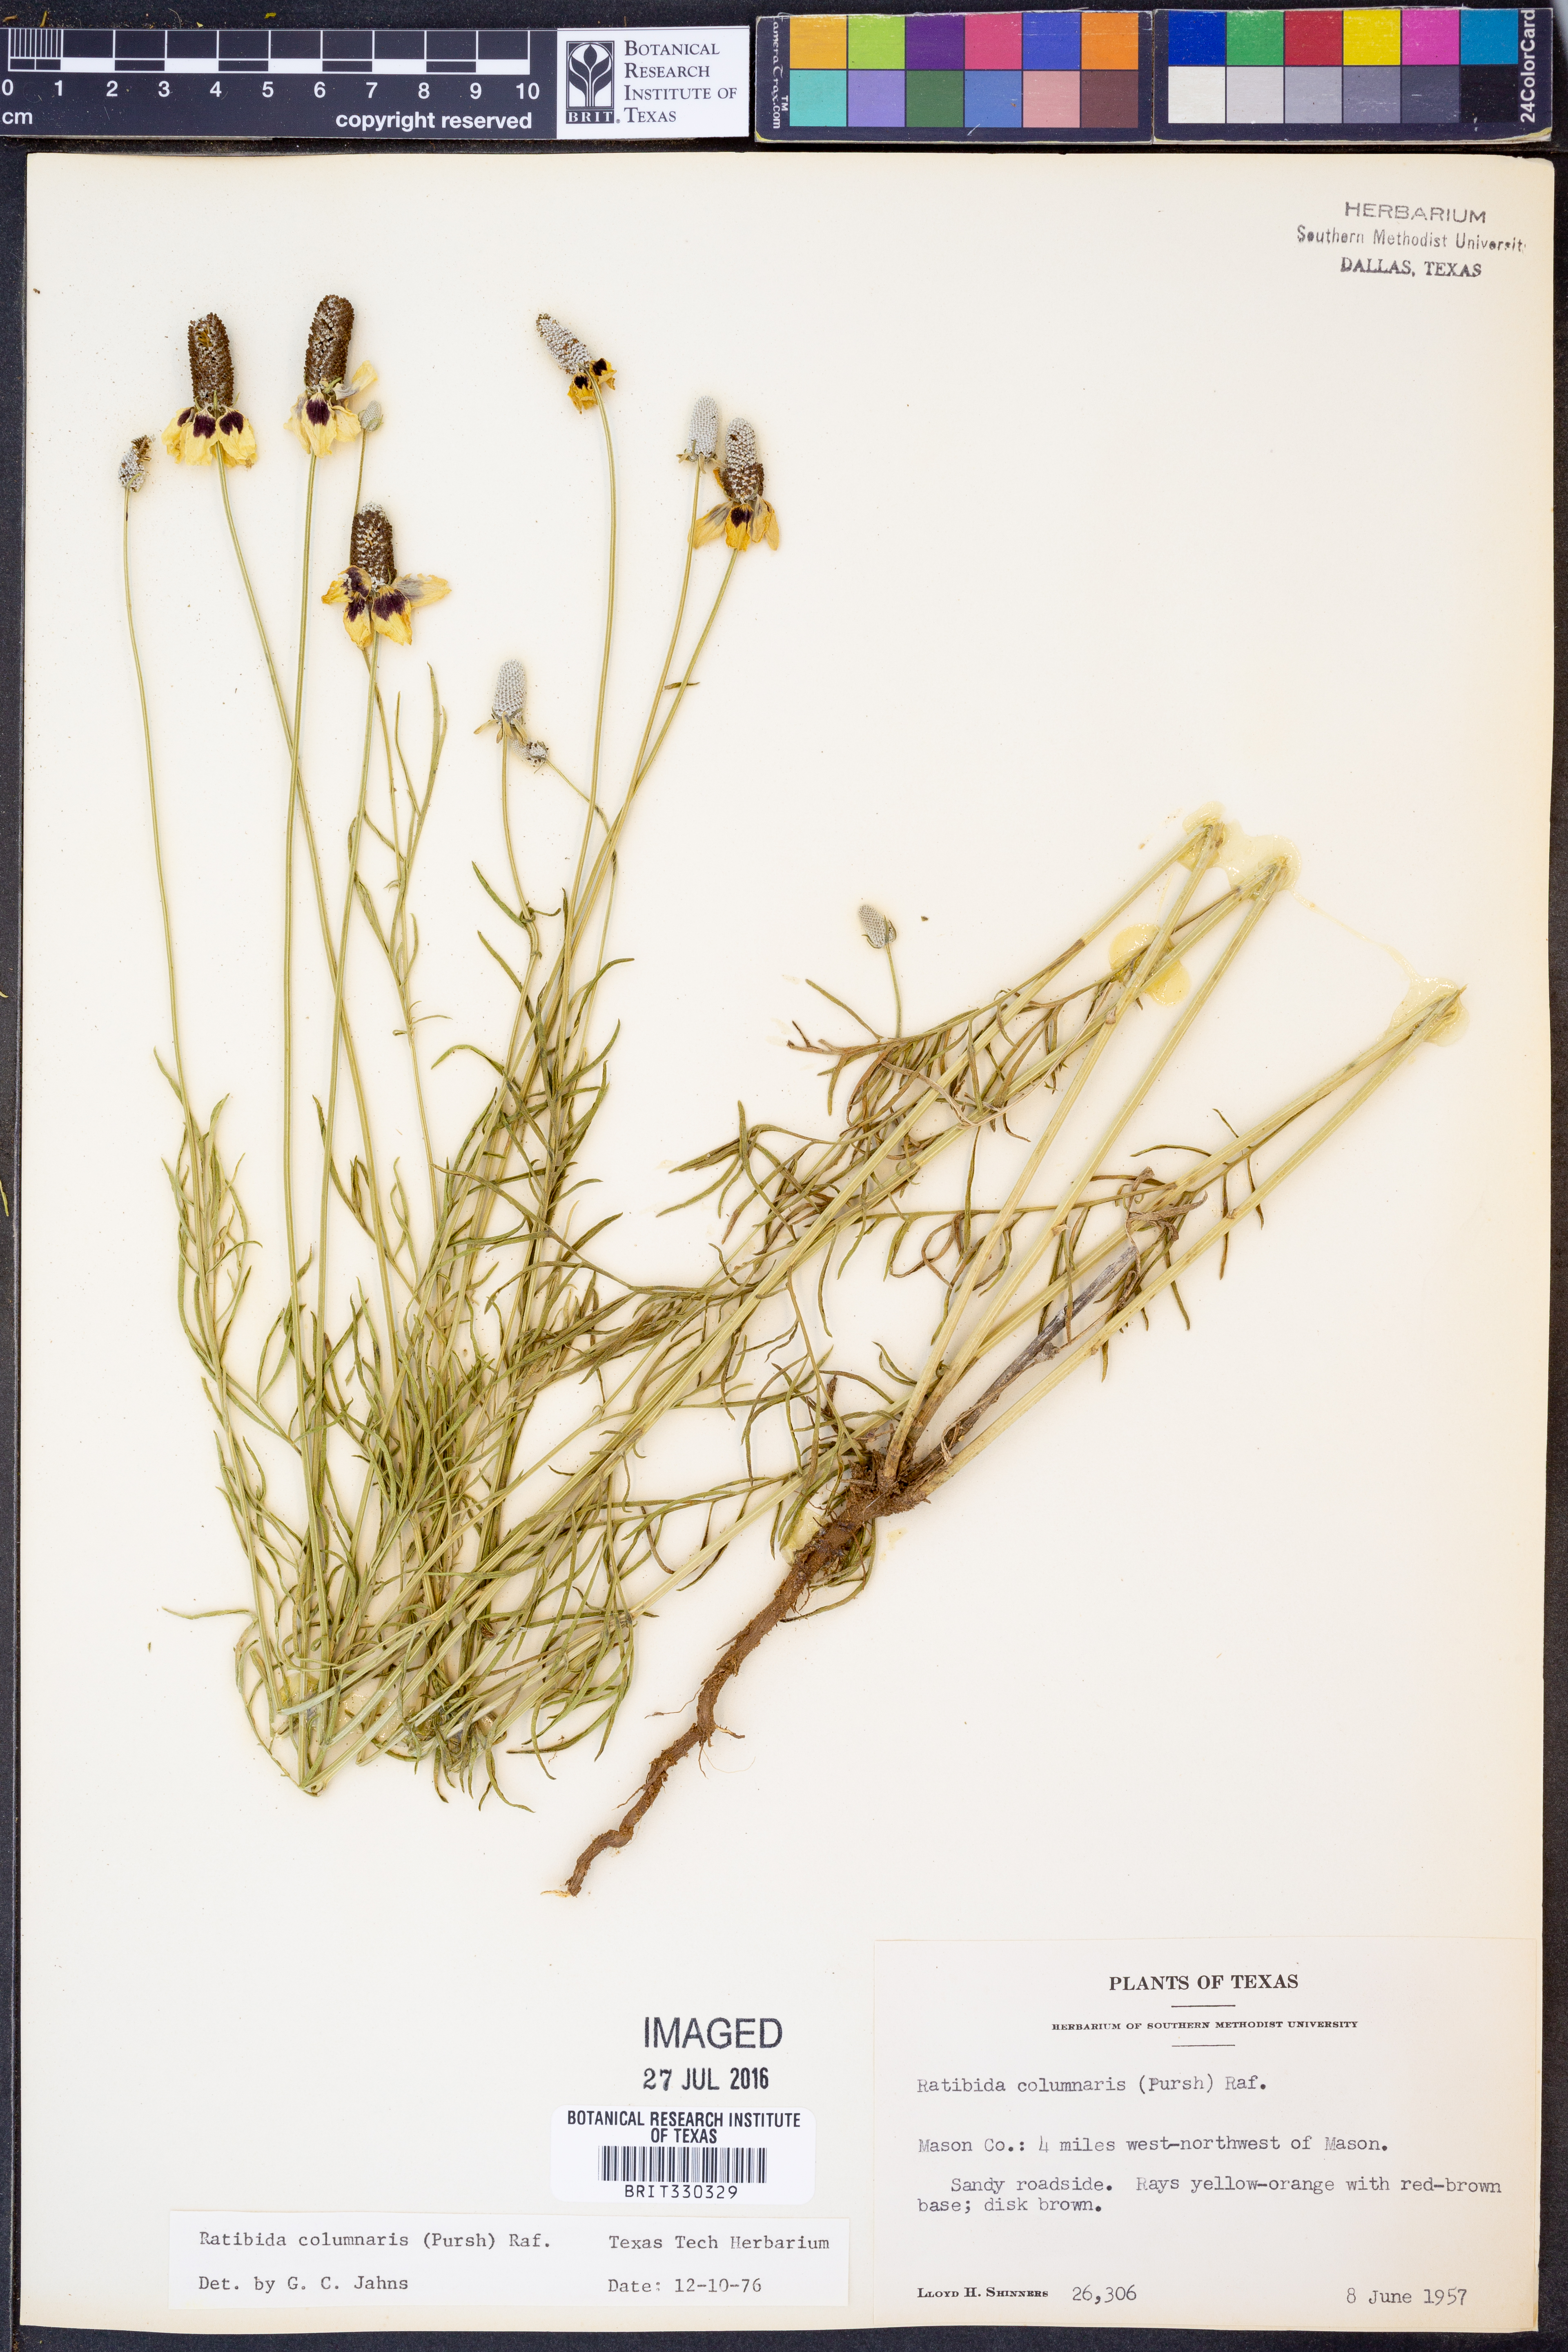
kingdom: Plantae
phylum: Tracheophyta
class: Magnoliopsida
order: Asterales
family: Asteraceae
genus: Ratibida
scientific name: Ratibida columnifera
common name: Prairie coneflower
